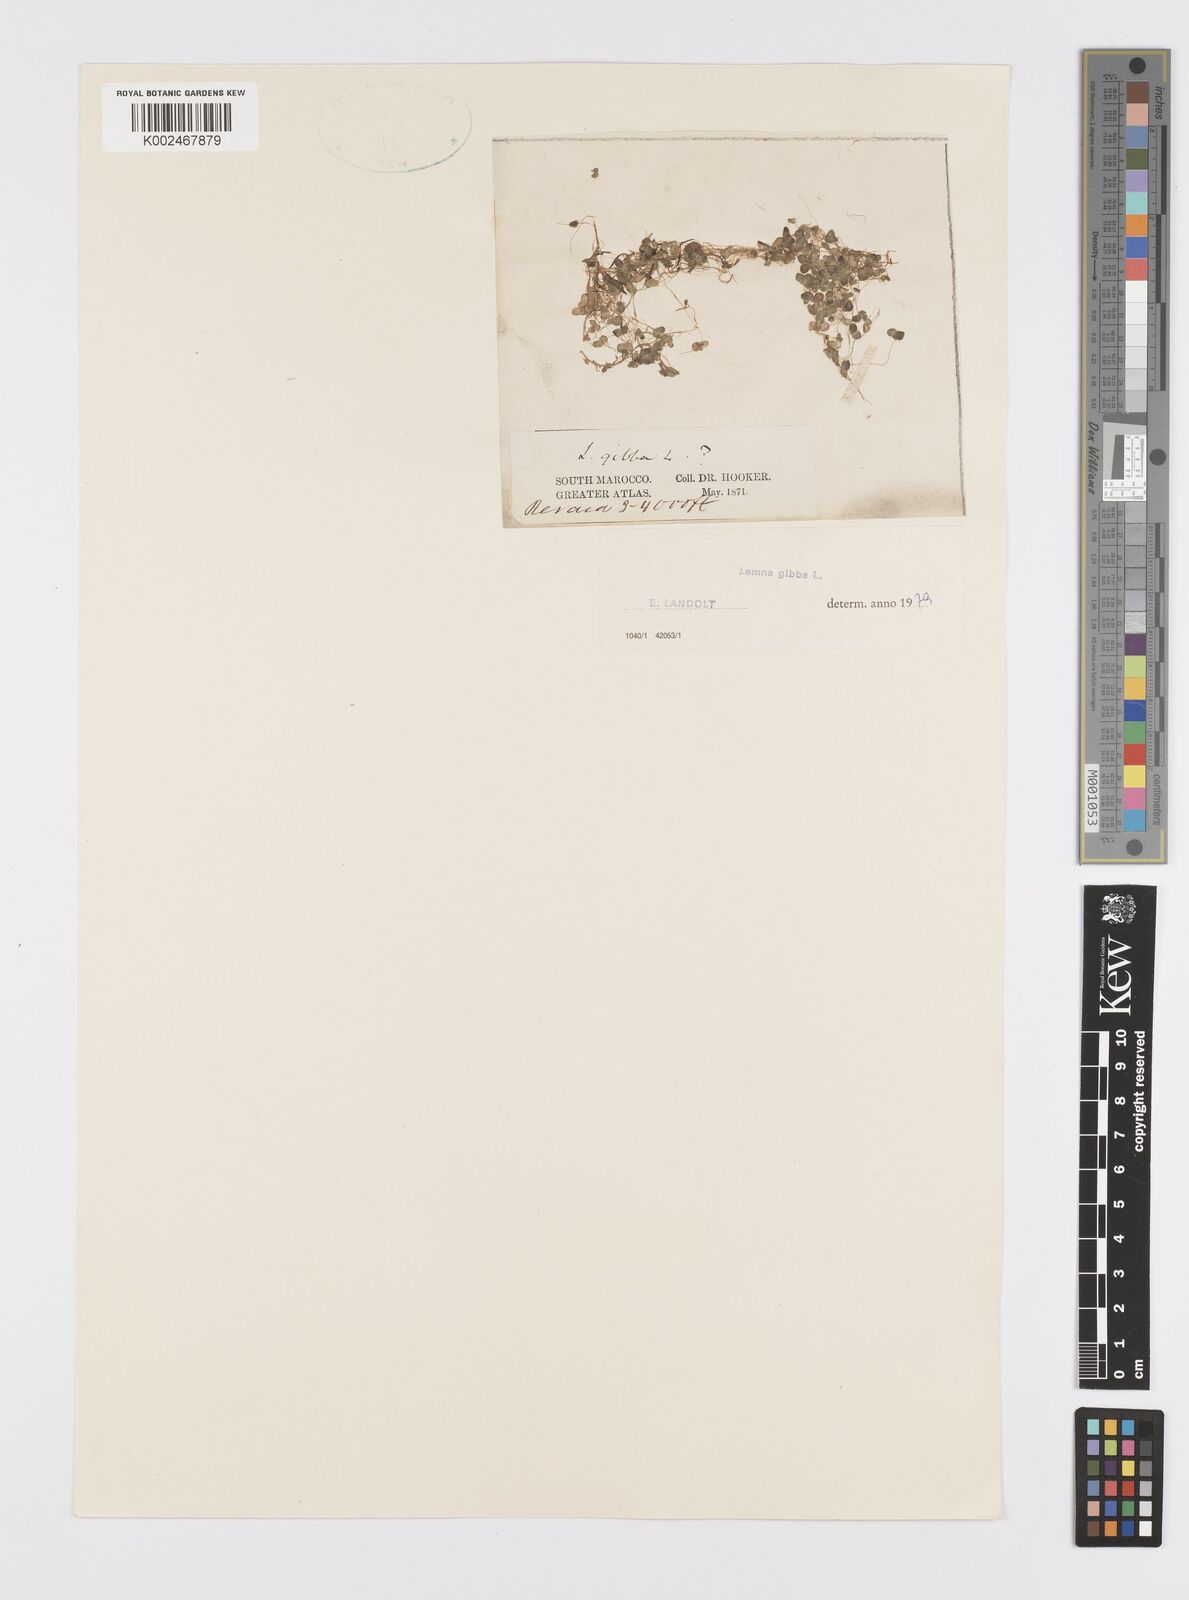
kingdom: Plantae
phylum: Tracheophyta
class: Liliopsida
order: Alismatales
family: Araceae
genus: Lemna
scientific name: Lemna gibba
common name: Fat duckweed
